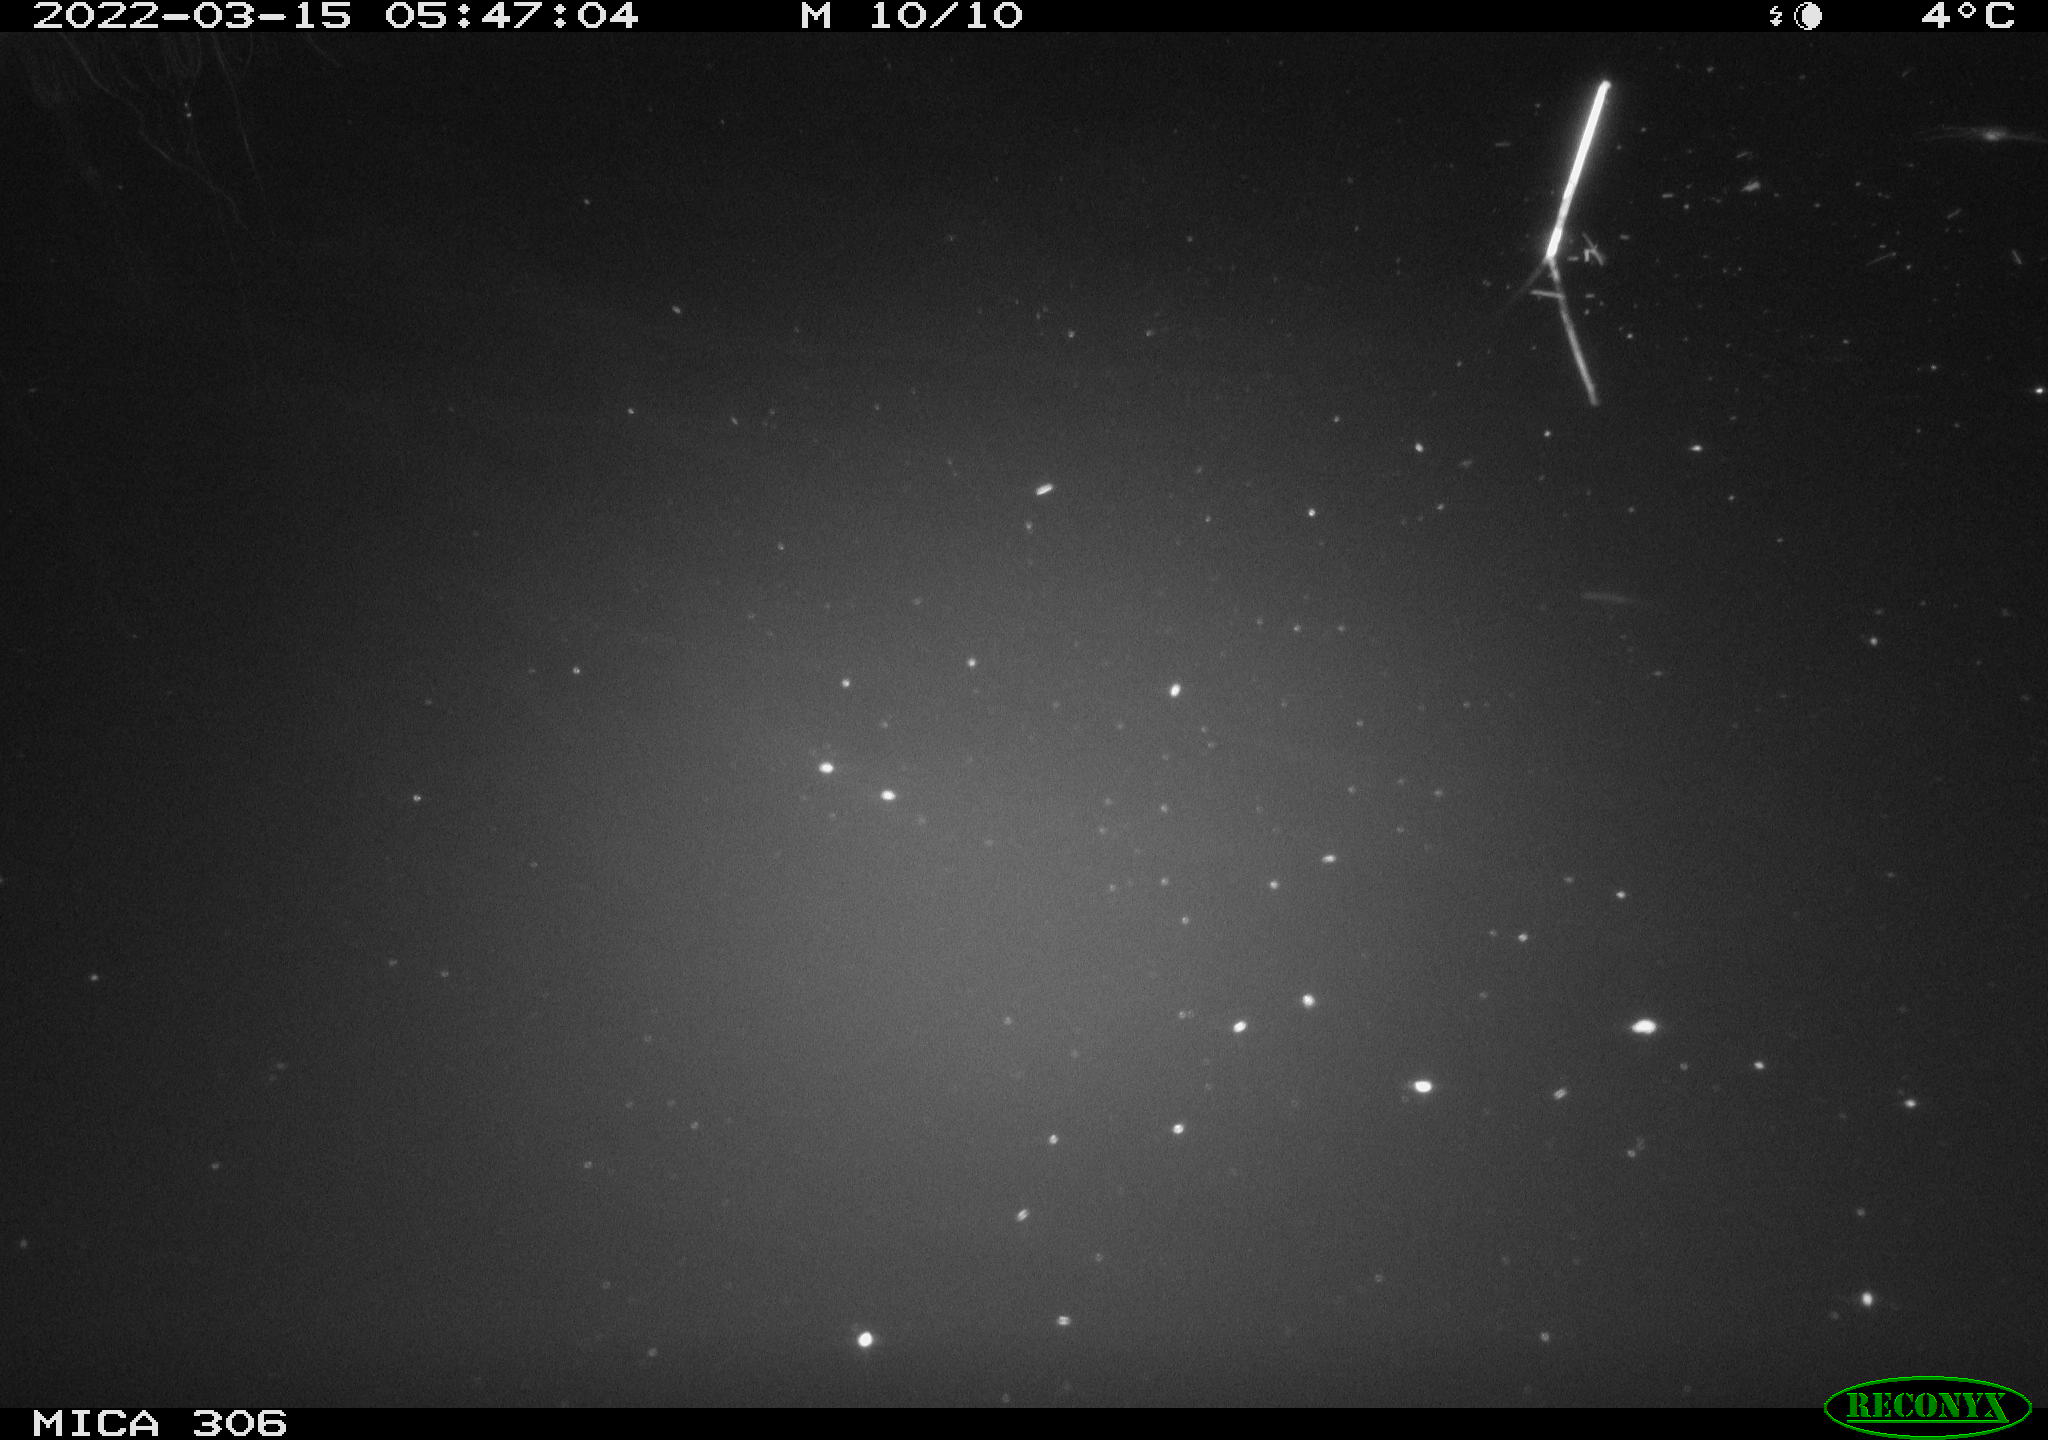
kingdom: Animalia
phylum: Chordata
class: Aves
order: Anseriformes
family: Anatidae
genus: Anas
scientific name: Anas
